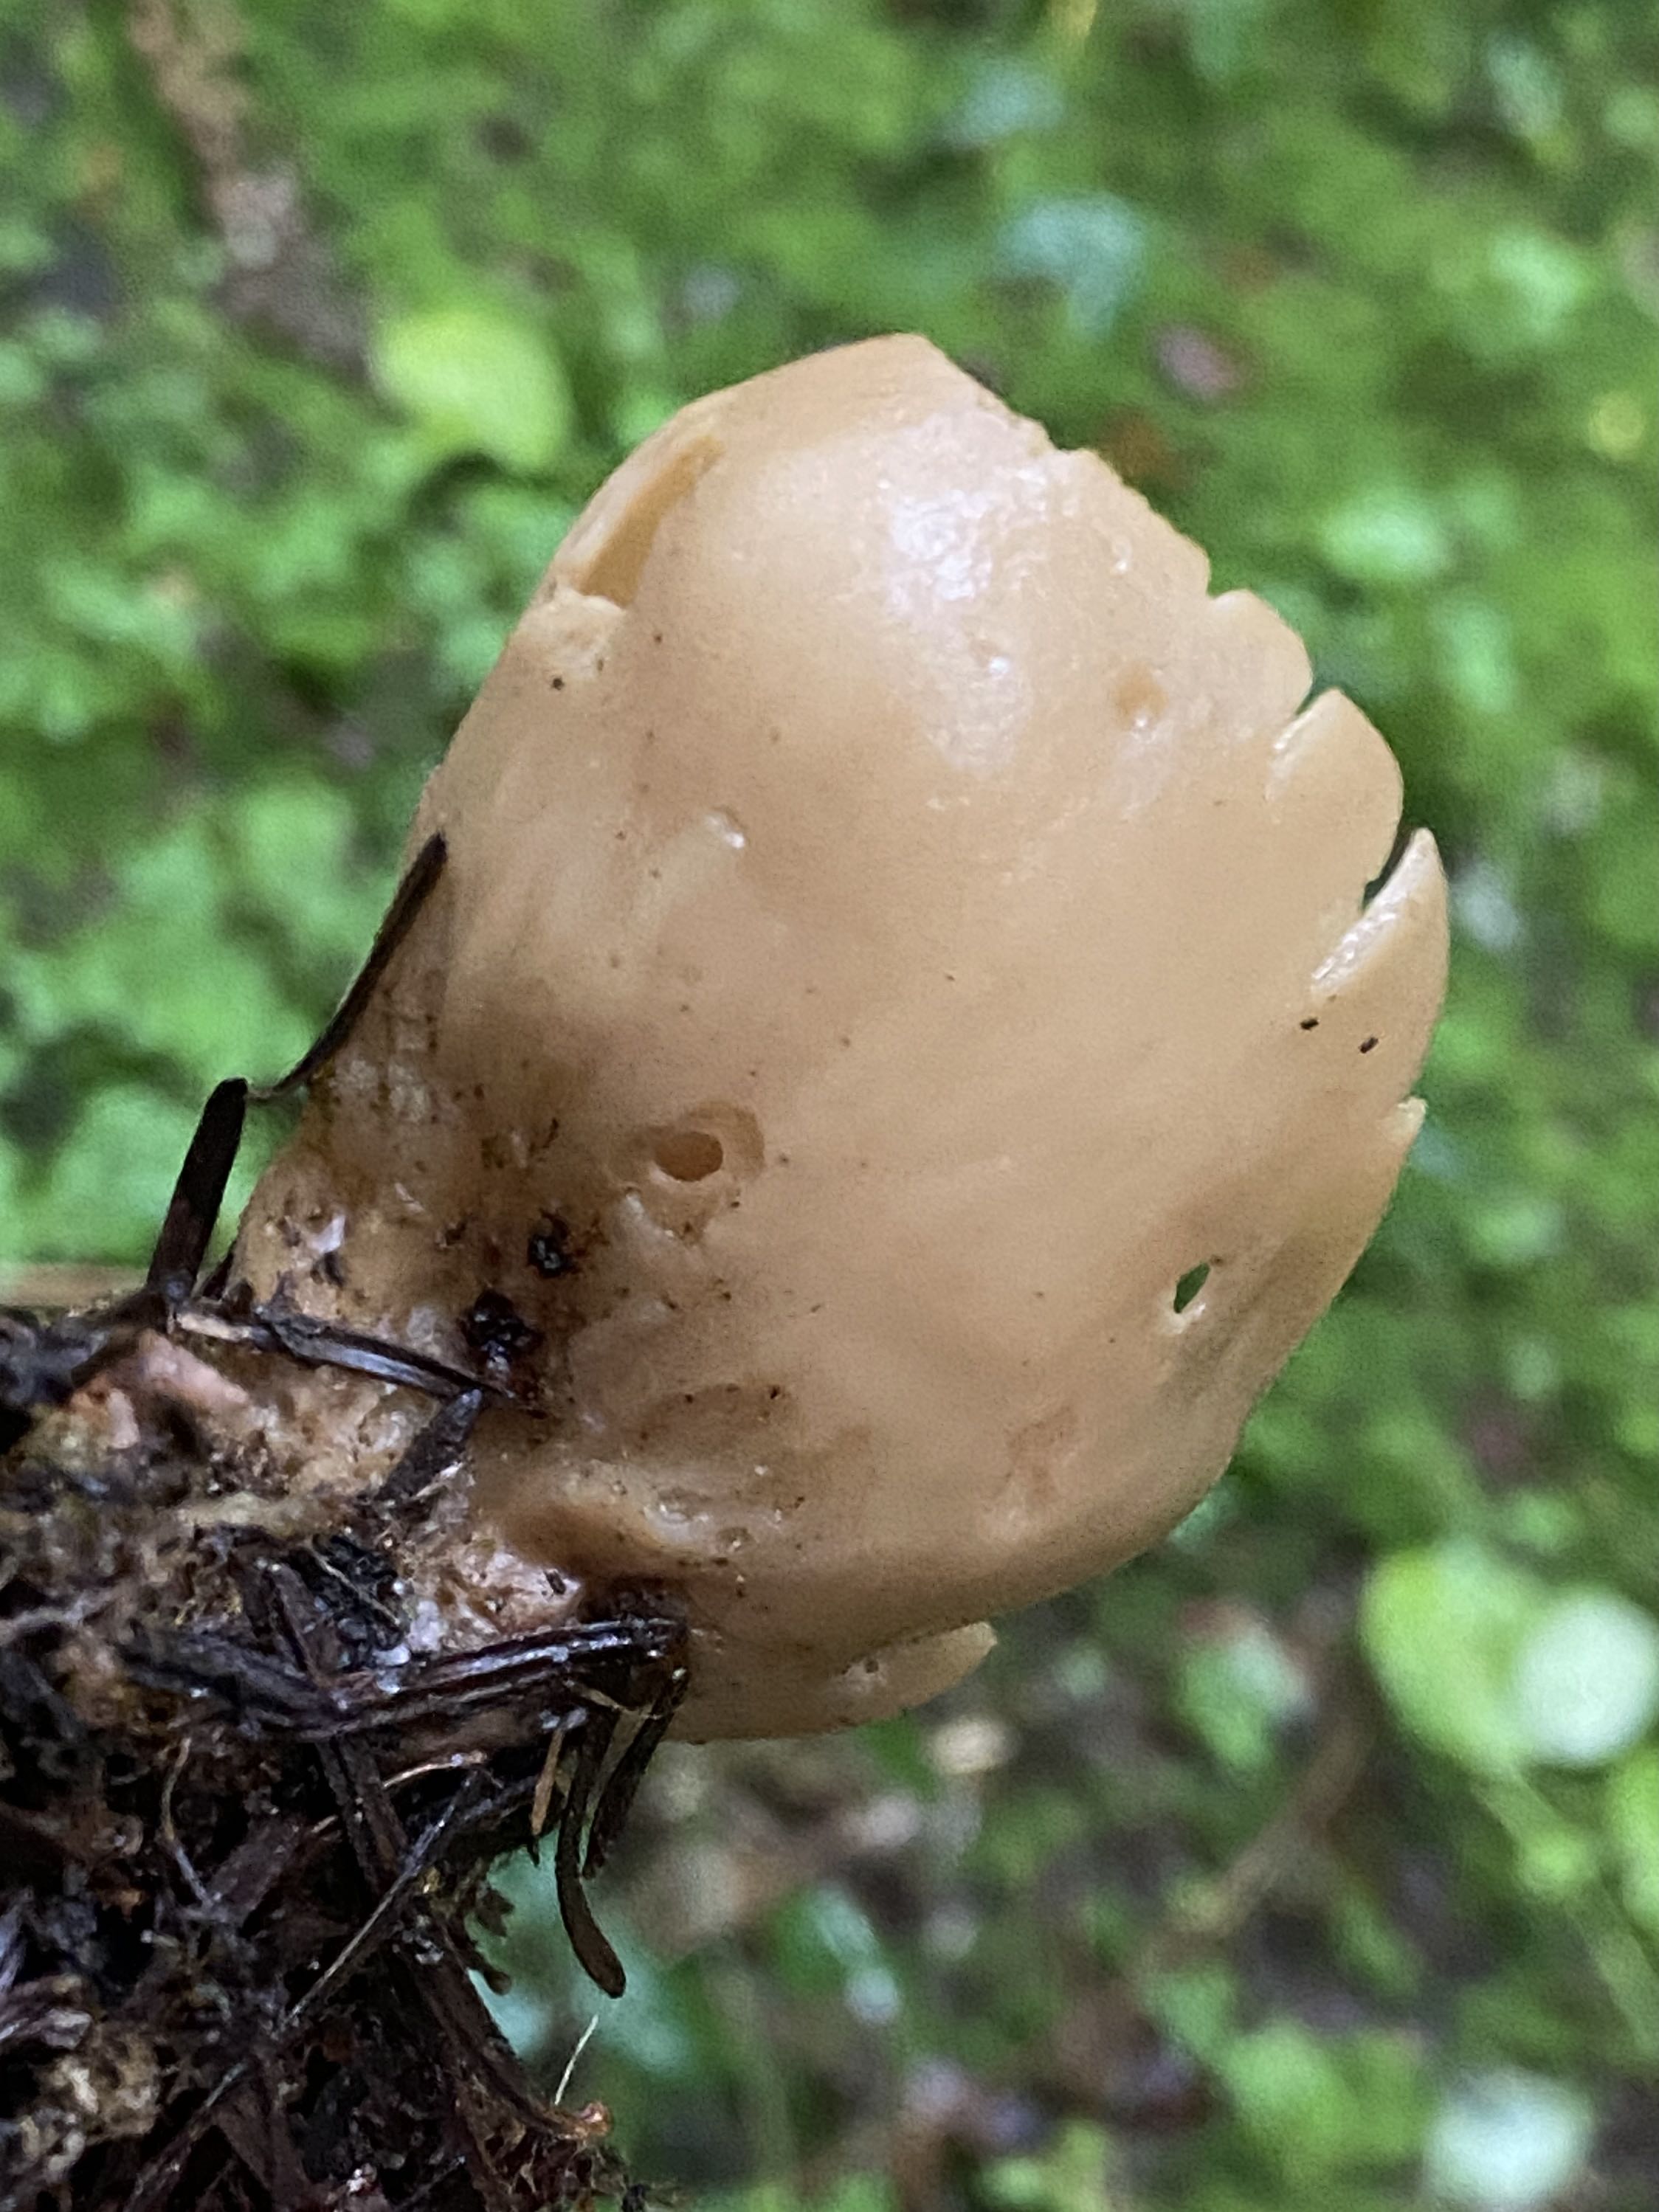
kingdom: Fungi
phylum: Ascomycota
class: Pezizomycetes
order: Pezizales
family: Otideaceae
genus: Otidea
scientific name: Otidea alutacea
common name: læder-ørebæger
